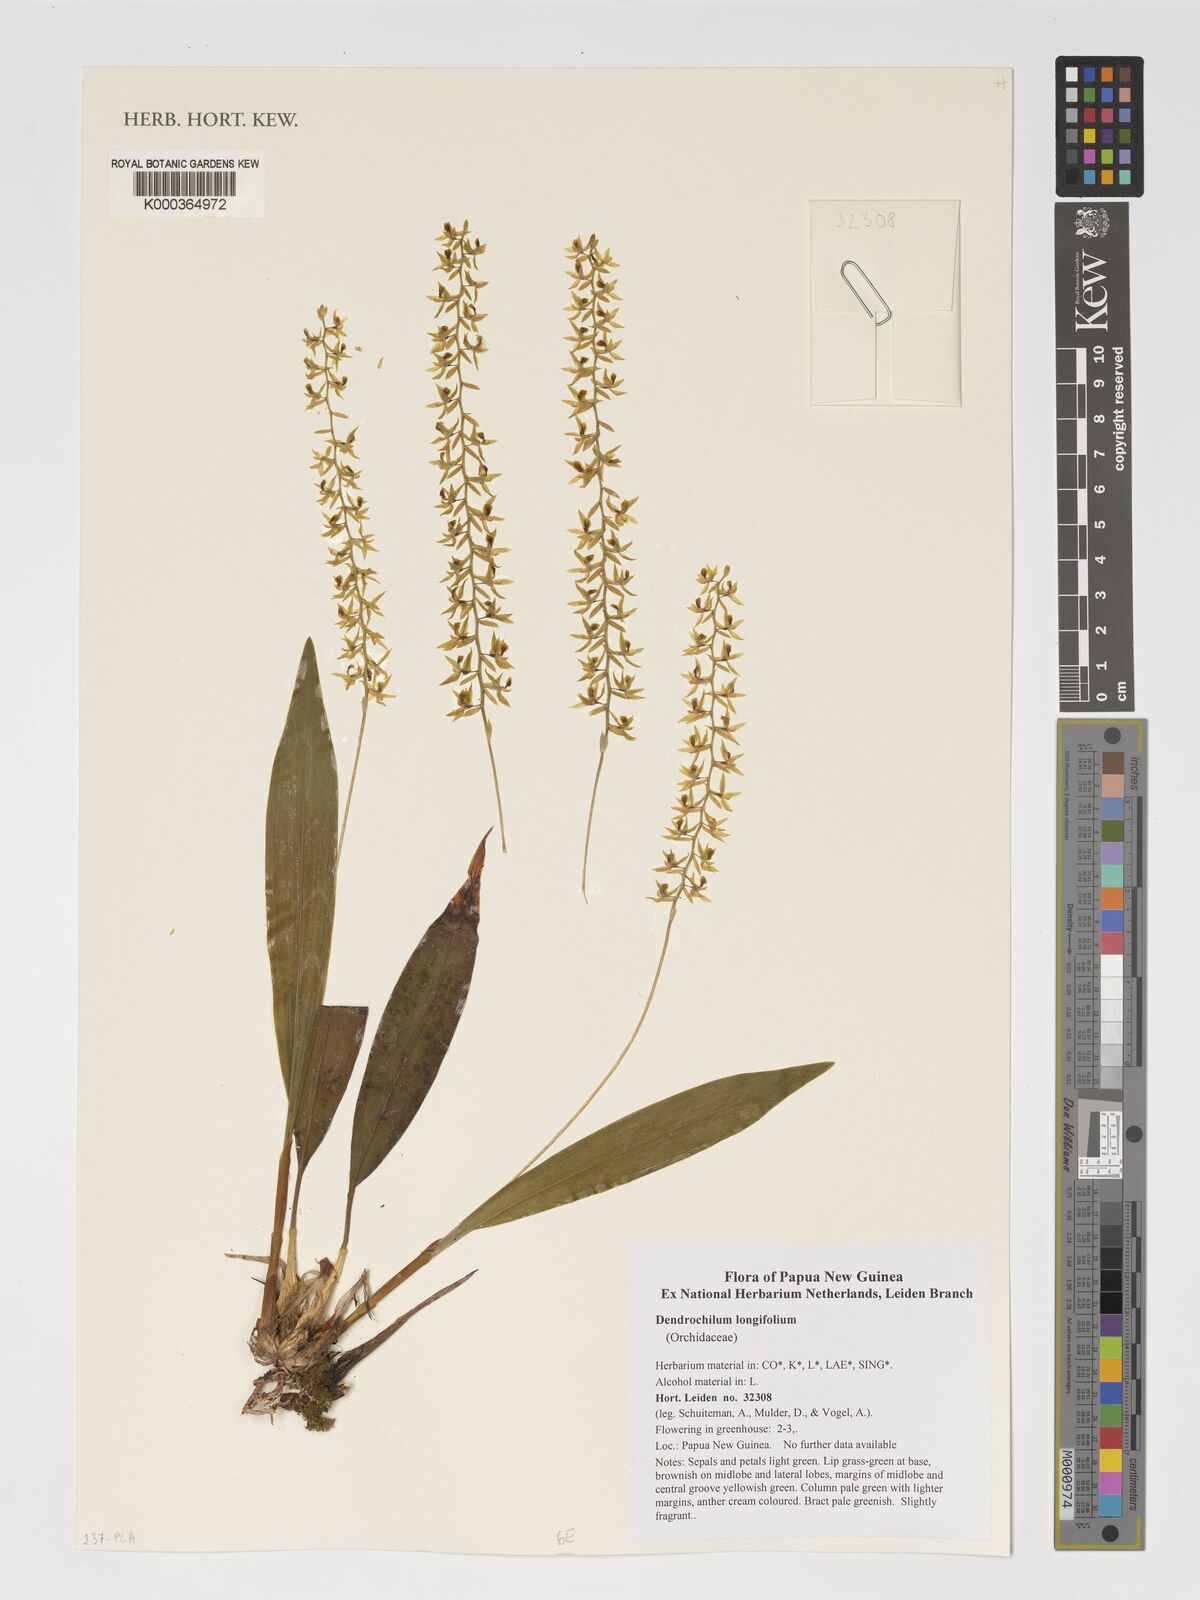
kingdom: Plantae
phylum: Tracheophyta
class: Liliopsida
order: Asparagales
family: Orchidaceae
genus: Coelogyne
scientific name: Coelogyne bracteosa
